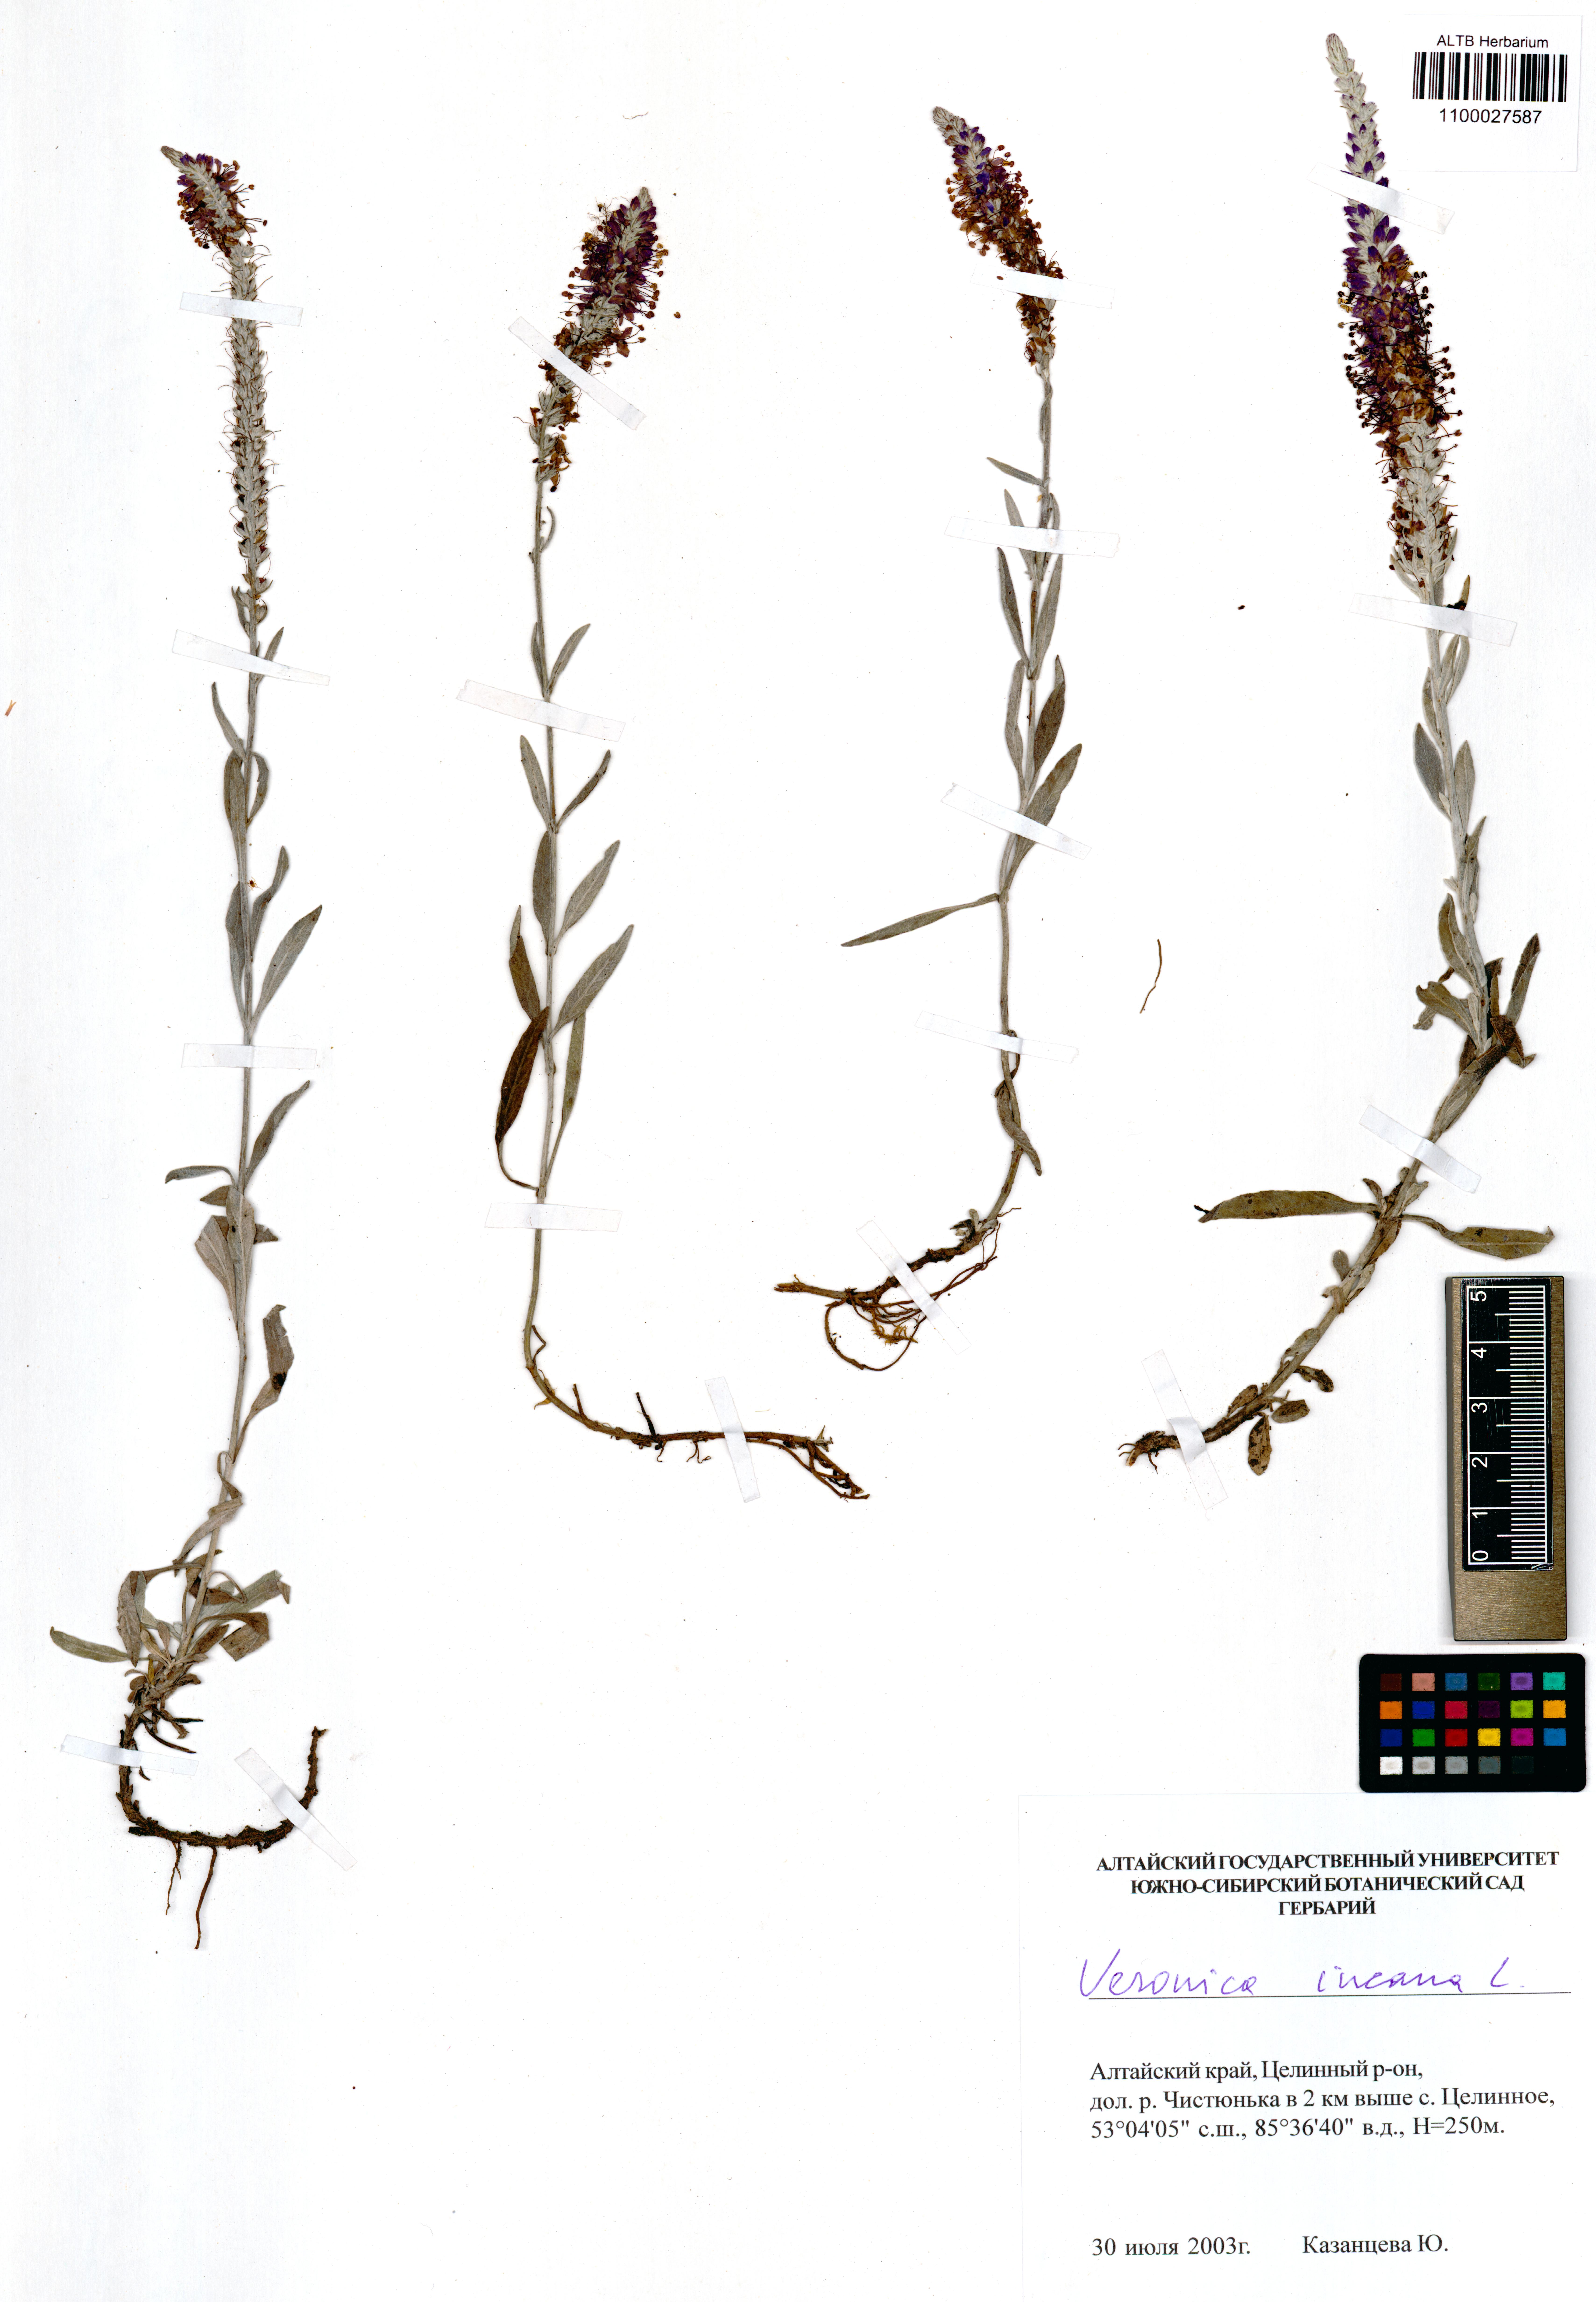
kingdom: Plantae
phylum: Tracheophyta
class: Magnoliopsida
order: Lamiales
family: Plantaginaceae
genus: Veronica
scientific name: Veronica incana
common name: Silver speedwell
